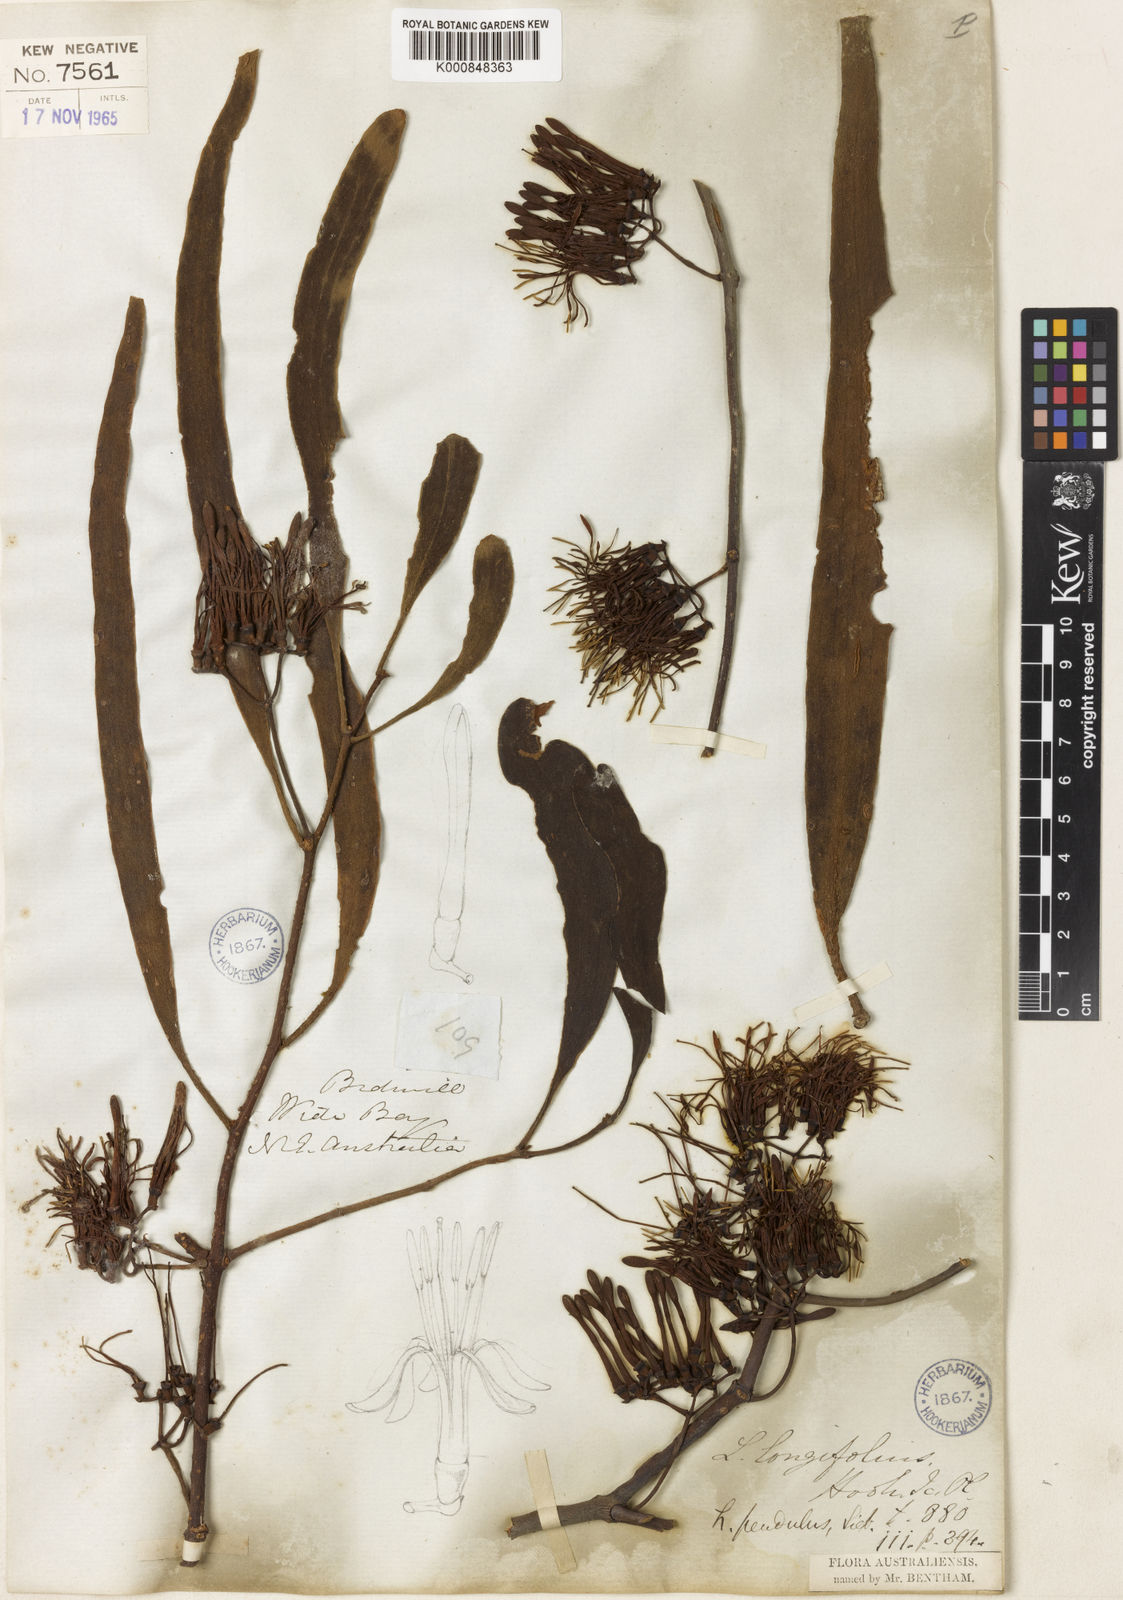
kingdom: Plantae
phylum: Tracheophyta
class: Magnoliopsida
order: Santalales
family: Loranthaceae
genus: Amyema
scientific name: Amyema pendula
